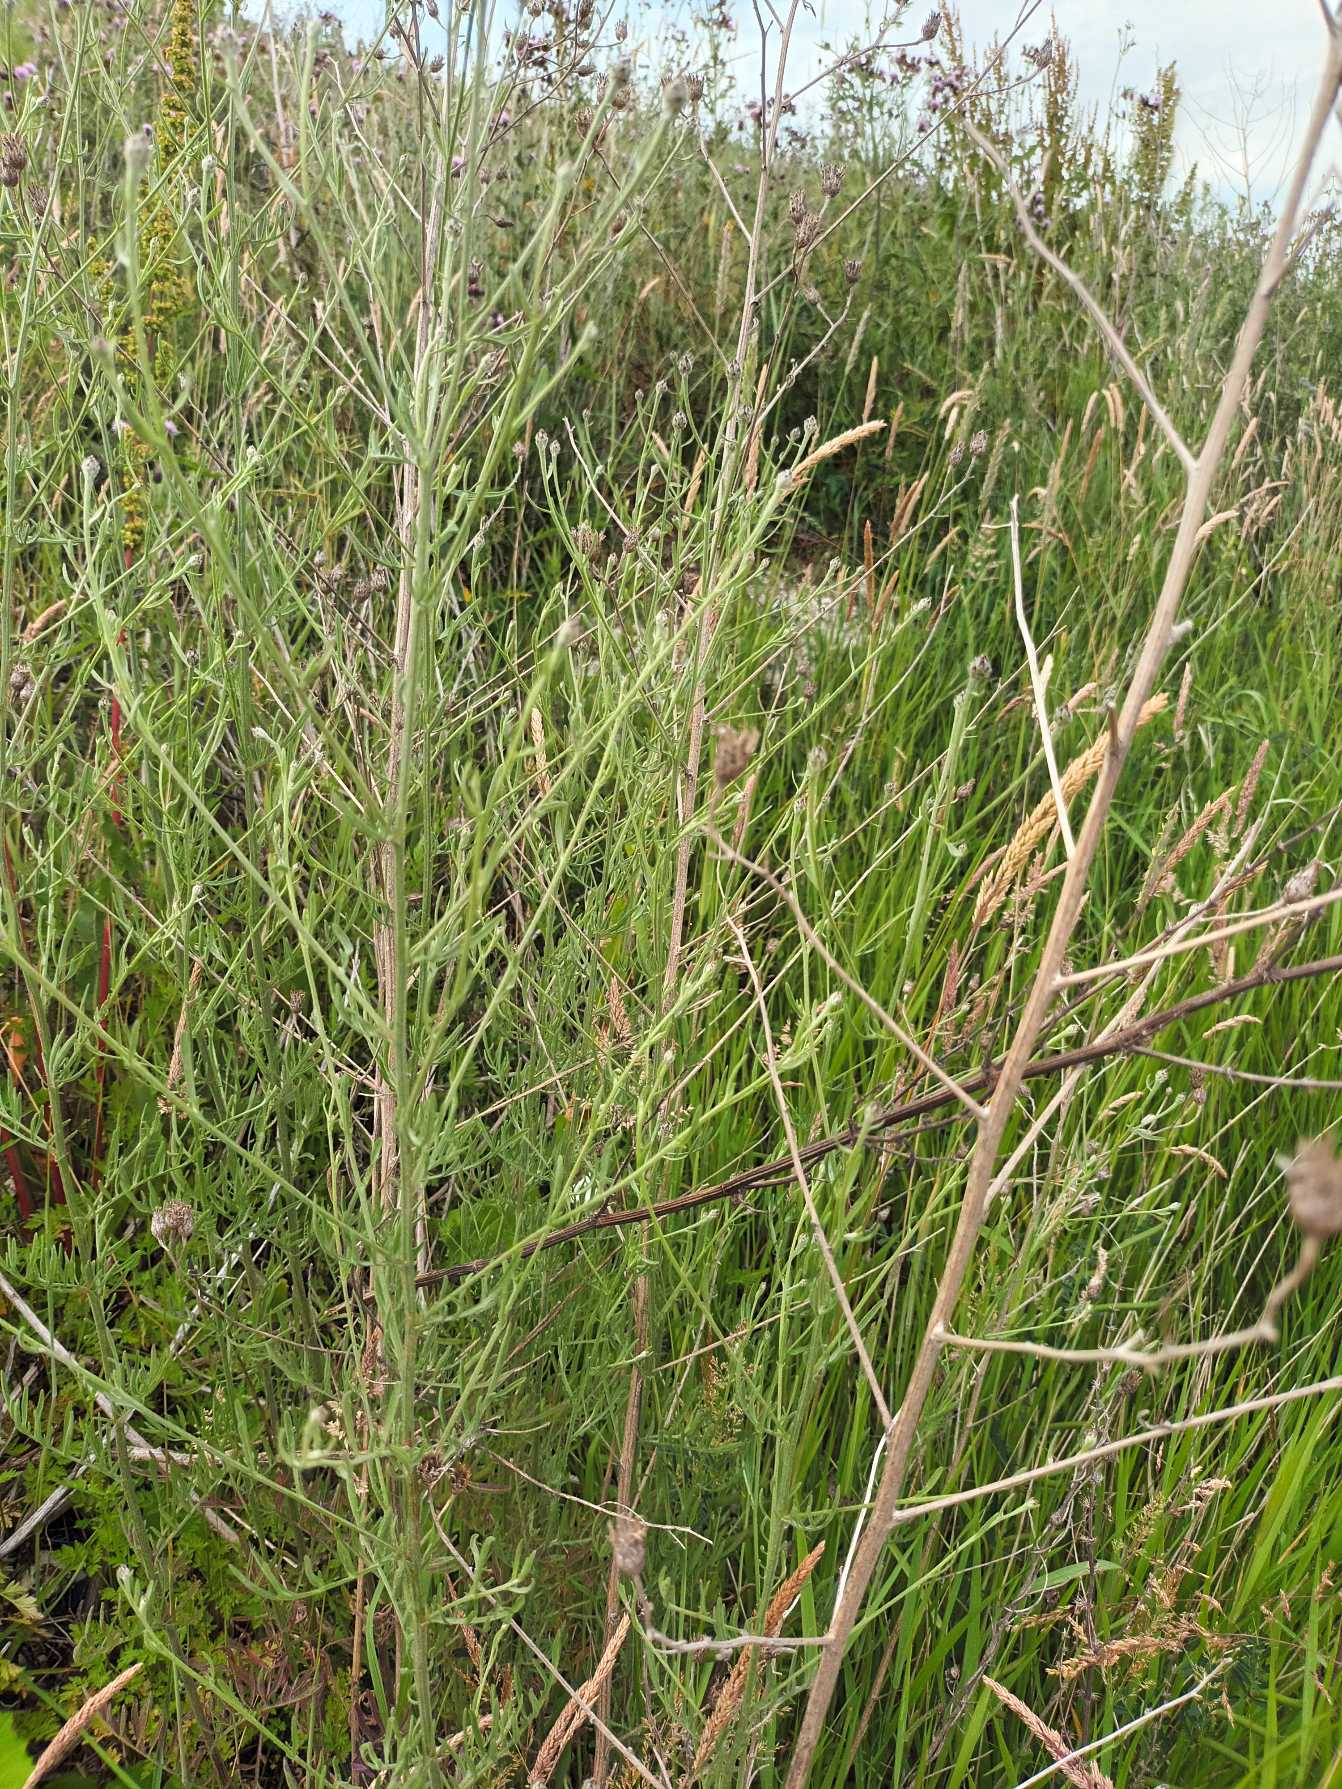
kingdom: Plantae
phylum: Tracheophyta
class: Magnoliopsida
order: Asterales
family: Asteraceae
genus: Centaurea
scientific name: Centaurea stoebe
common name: Småhovedet knopurt
